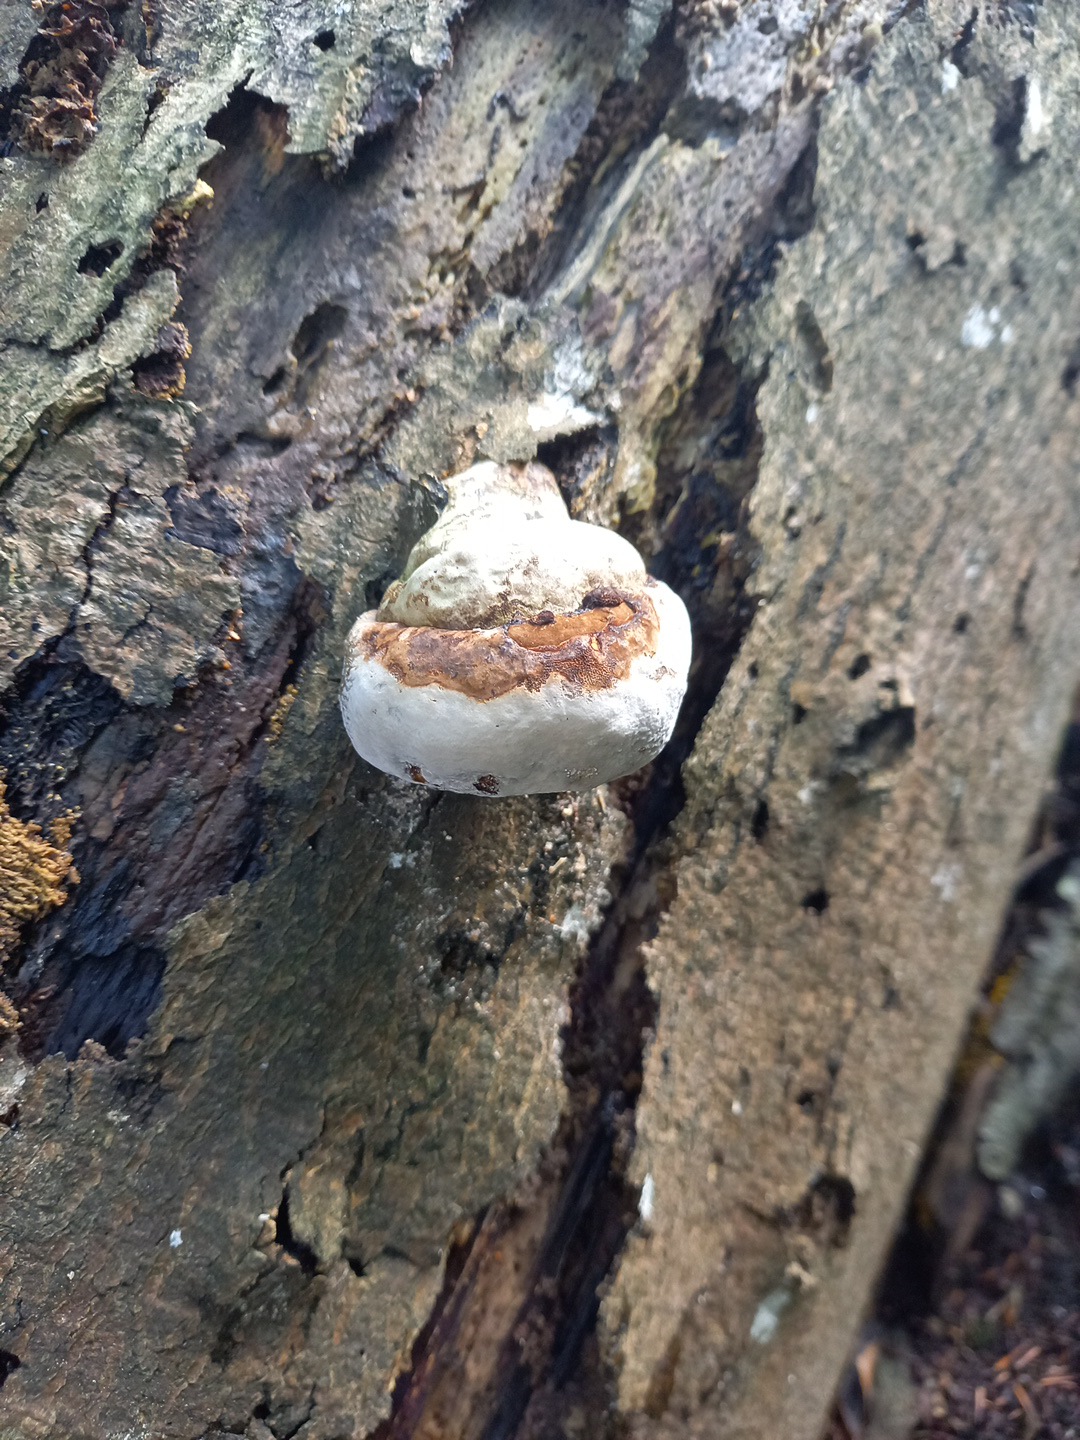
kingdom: Fungi
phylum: Basidiomycota
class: Agaricomycetes
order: Polyporales
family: Polyporaceae
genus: Fomes
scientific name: Fomes fomentarius
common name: tøndersvamp
